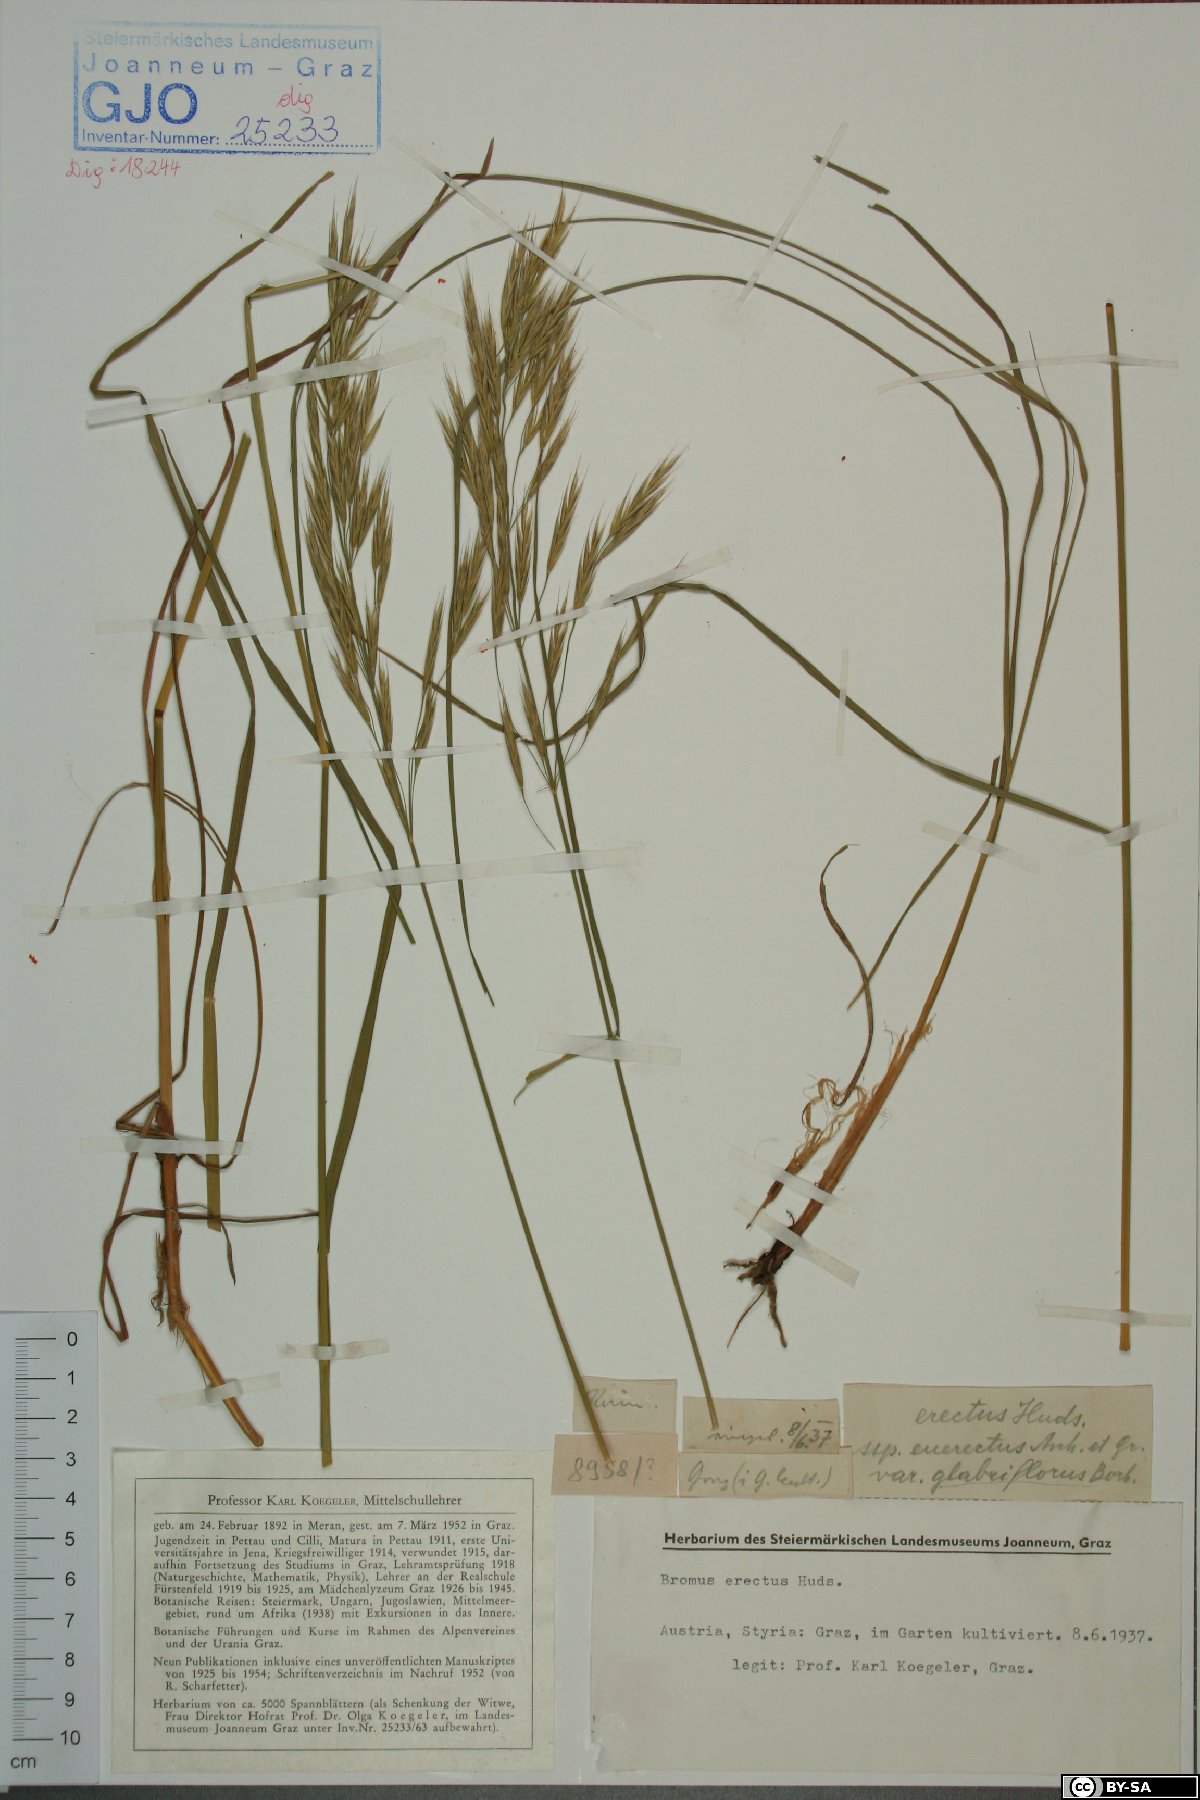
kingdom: Plantae
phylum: Tracheophyta
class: Liliopsida
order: Poales
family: Poaceae
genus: Bromus
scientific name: Bromus erectus
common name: Erect brome
